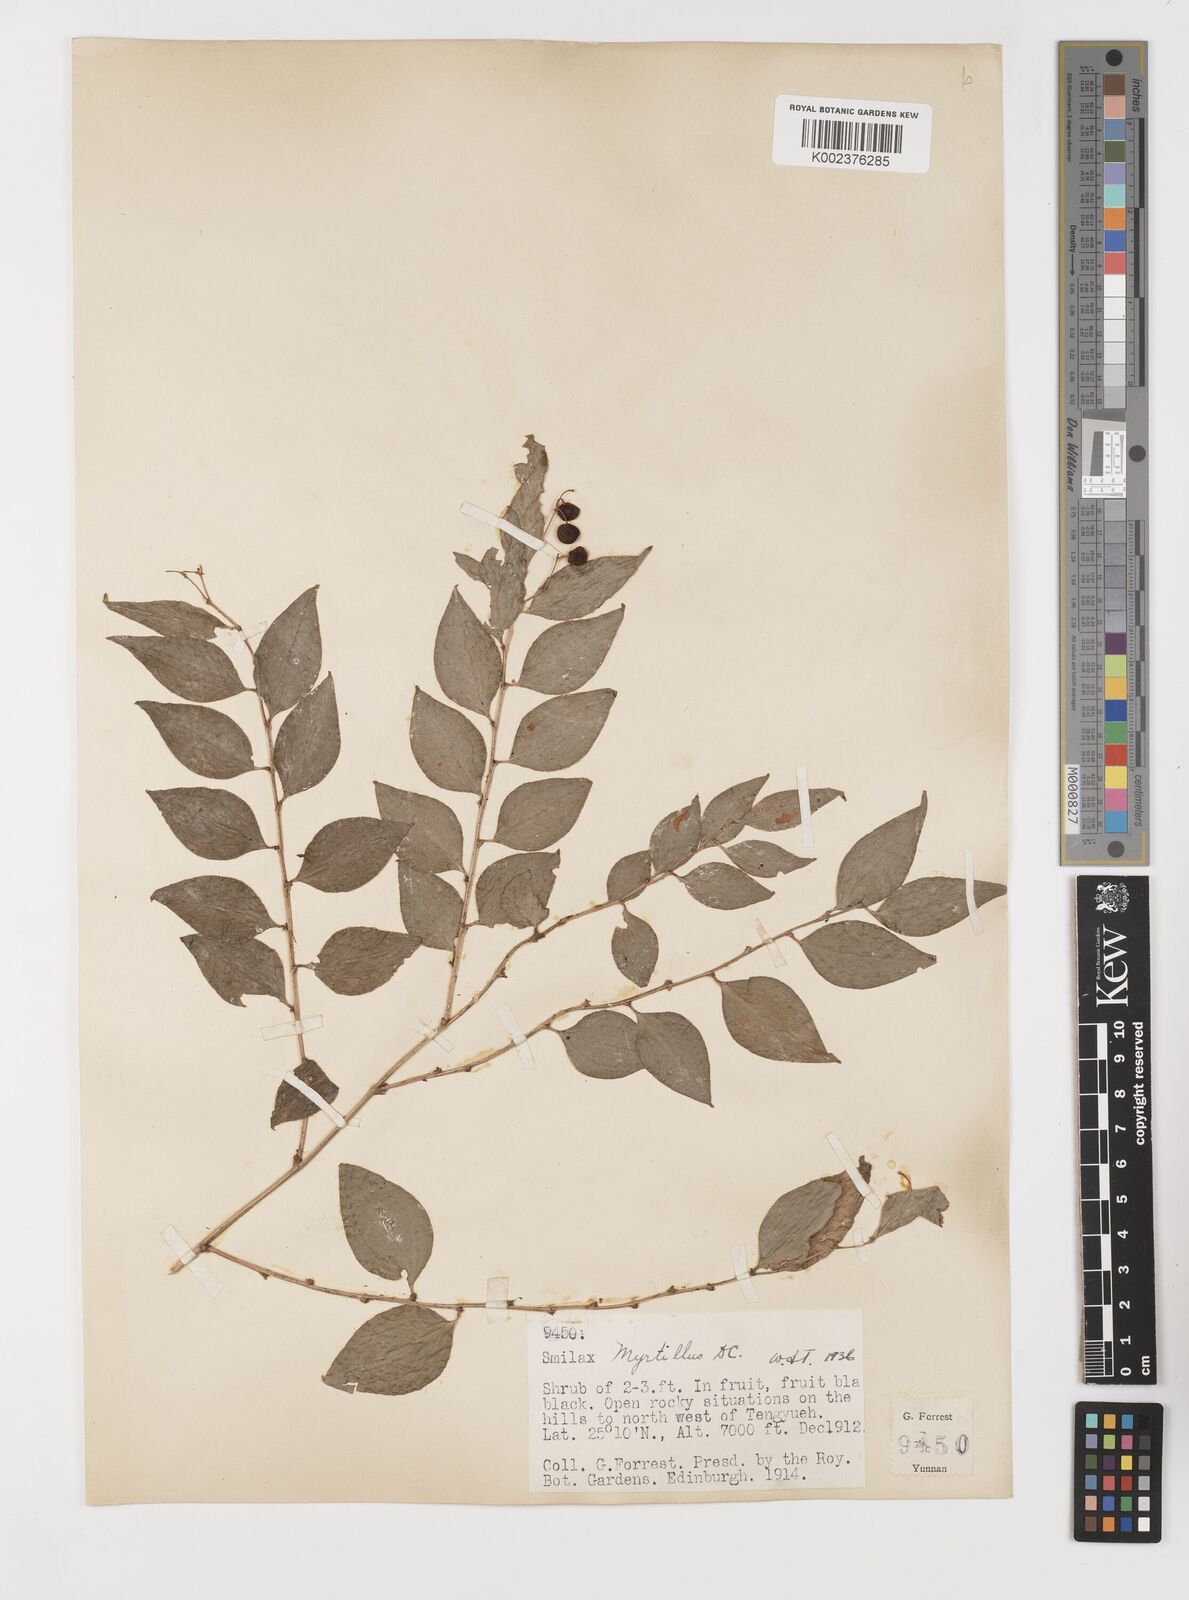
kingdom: Plantae
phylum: Tracheophyta
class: Liliopsida
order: Liliales
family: Smilacaceae
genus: Smilax
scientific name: Smilax myrtillus
